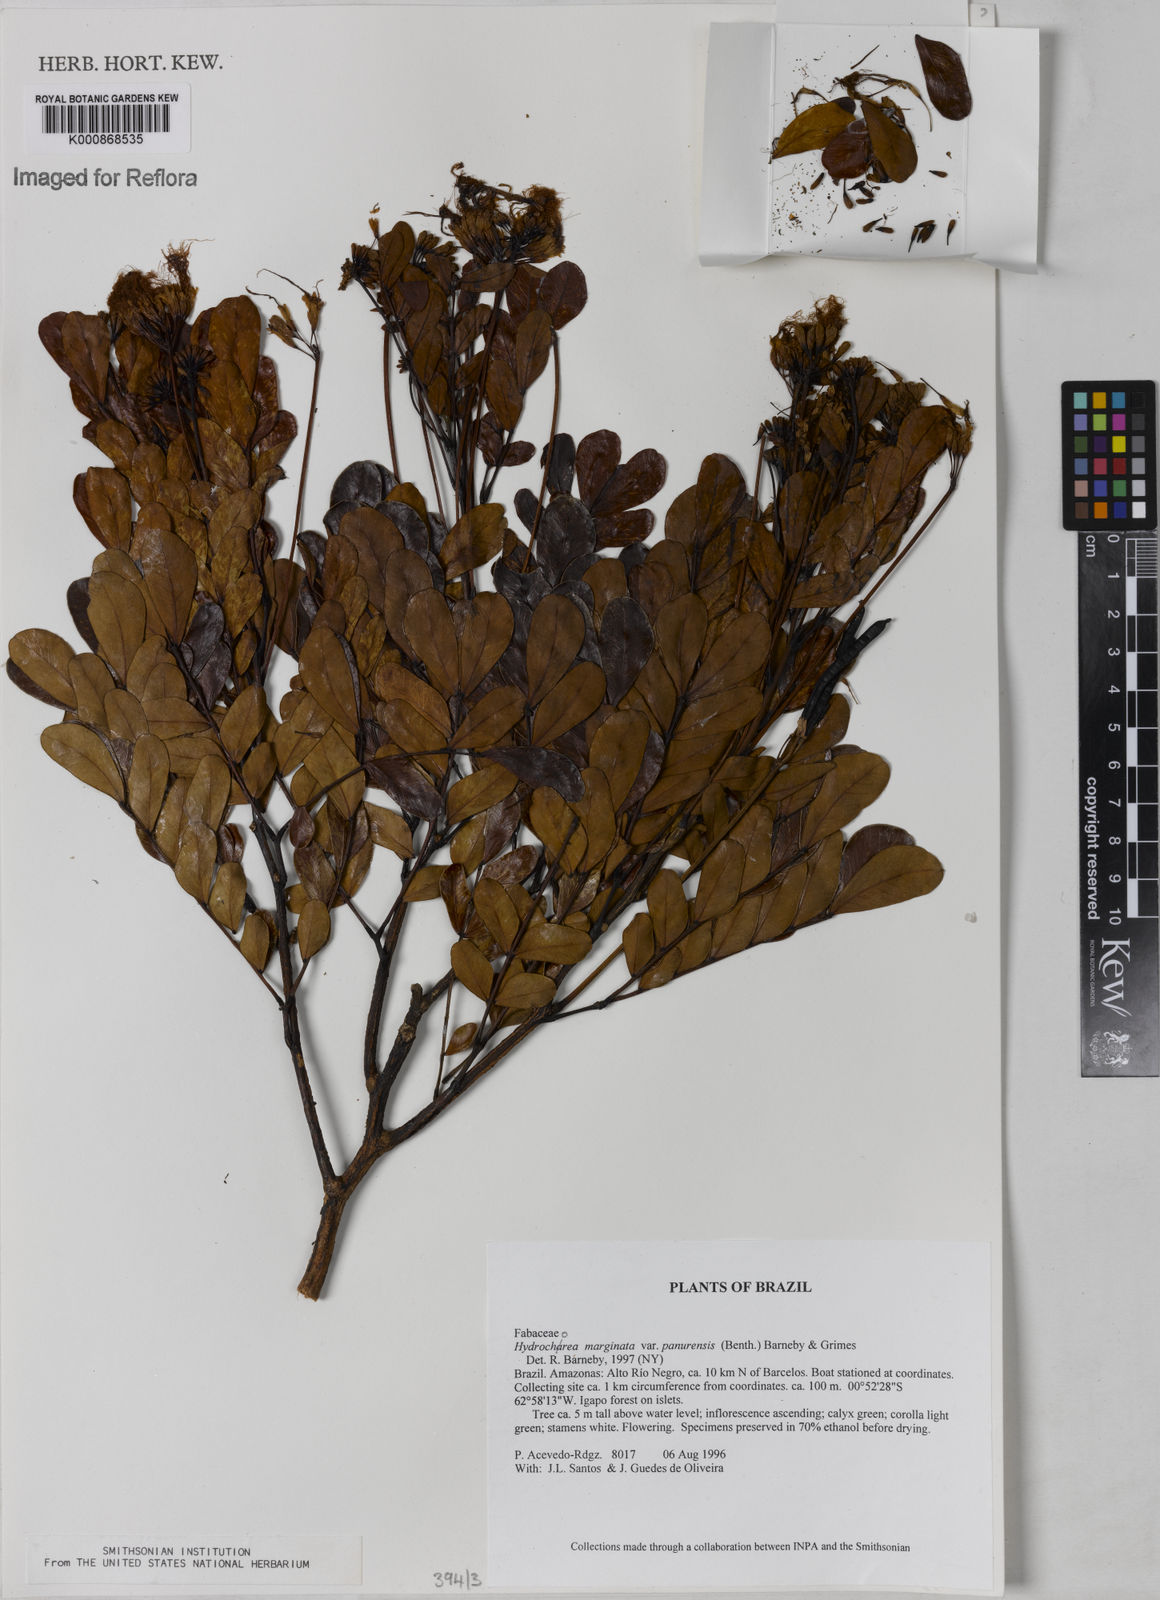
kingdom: Plantae
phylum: Tracheophyta
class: Magnoliopsida
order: Fabales
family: Fabaceae
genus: Hydrochorea
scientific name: Hydrochorea marginata
